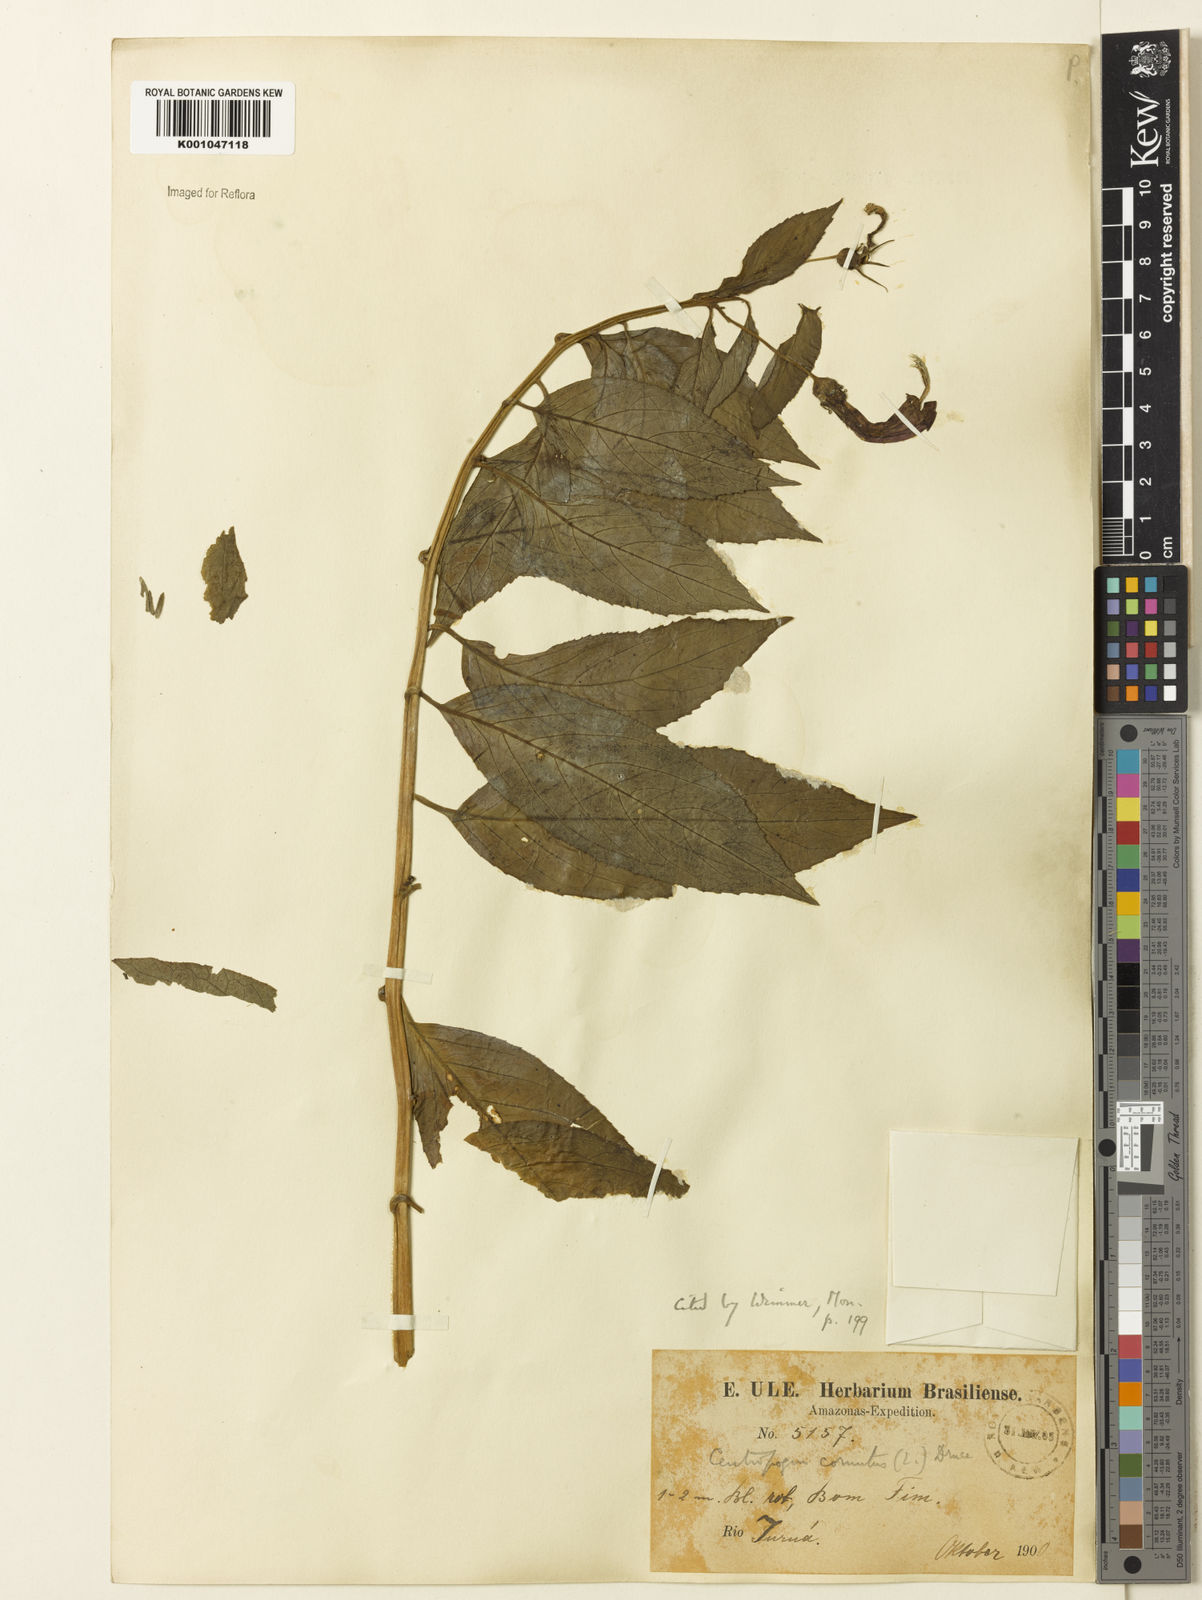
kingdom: Plantae
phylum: Tracheophyta
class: Magnoliopsida
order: Asterales
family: Campanulaceae
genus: Centropogon
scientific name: Centropogon cornutus
